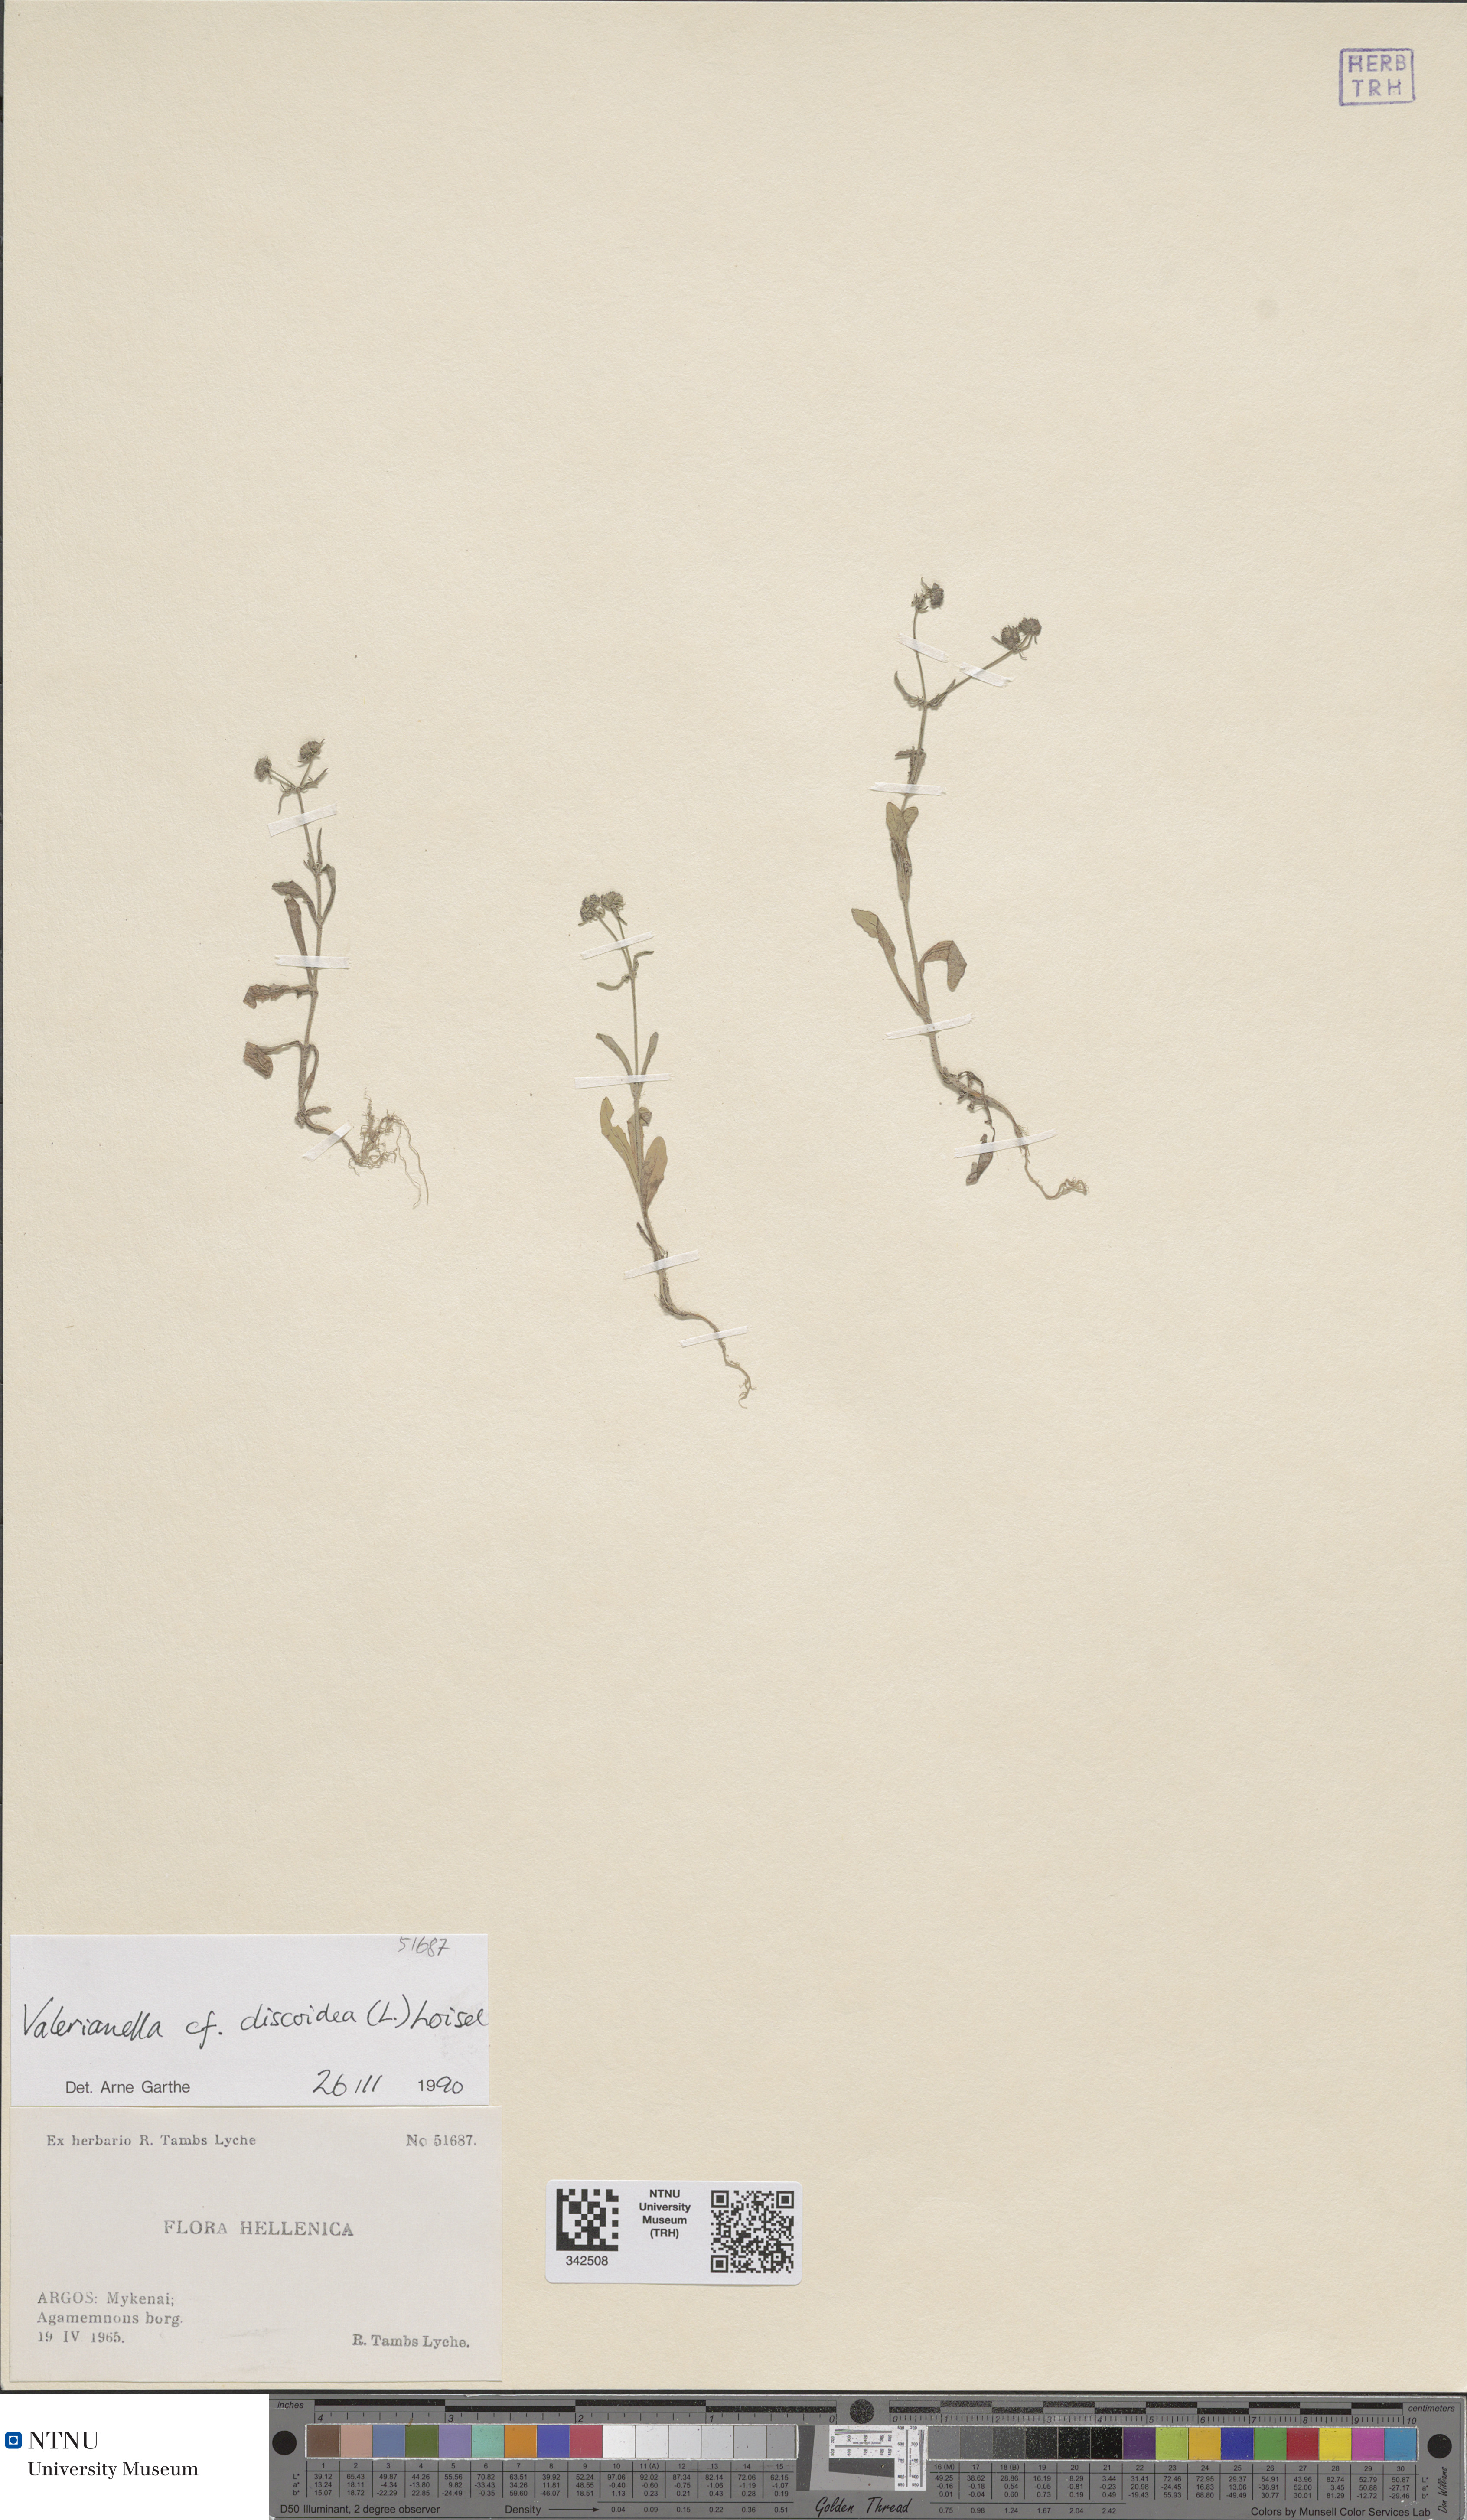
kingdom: Plantae
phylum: Tracheophyta
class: Magnoliopsida
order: Dipsacales
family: Caprifoliaceae
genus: Valerianella
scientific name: Valerianella discoidea
